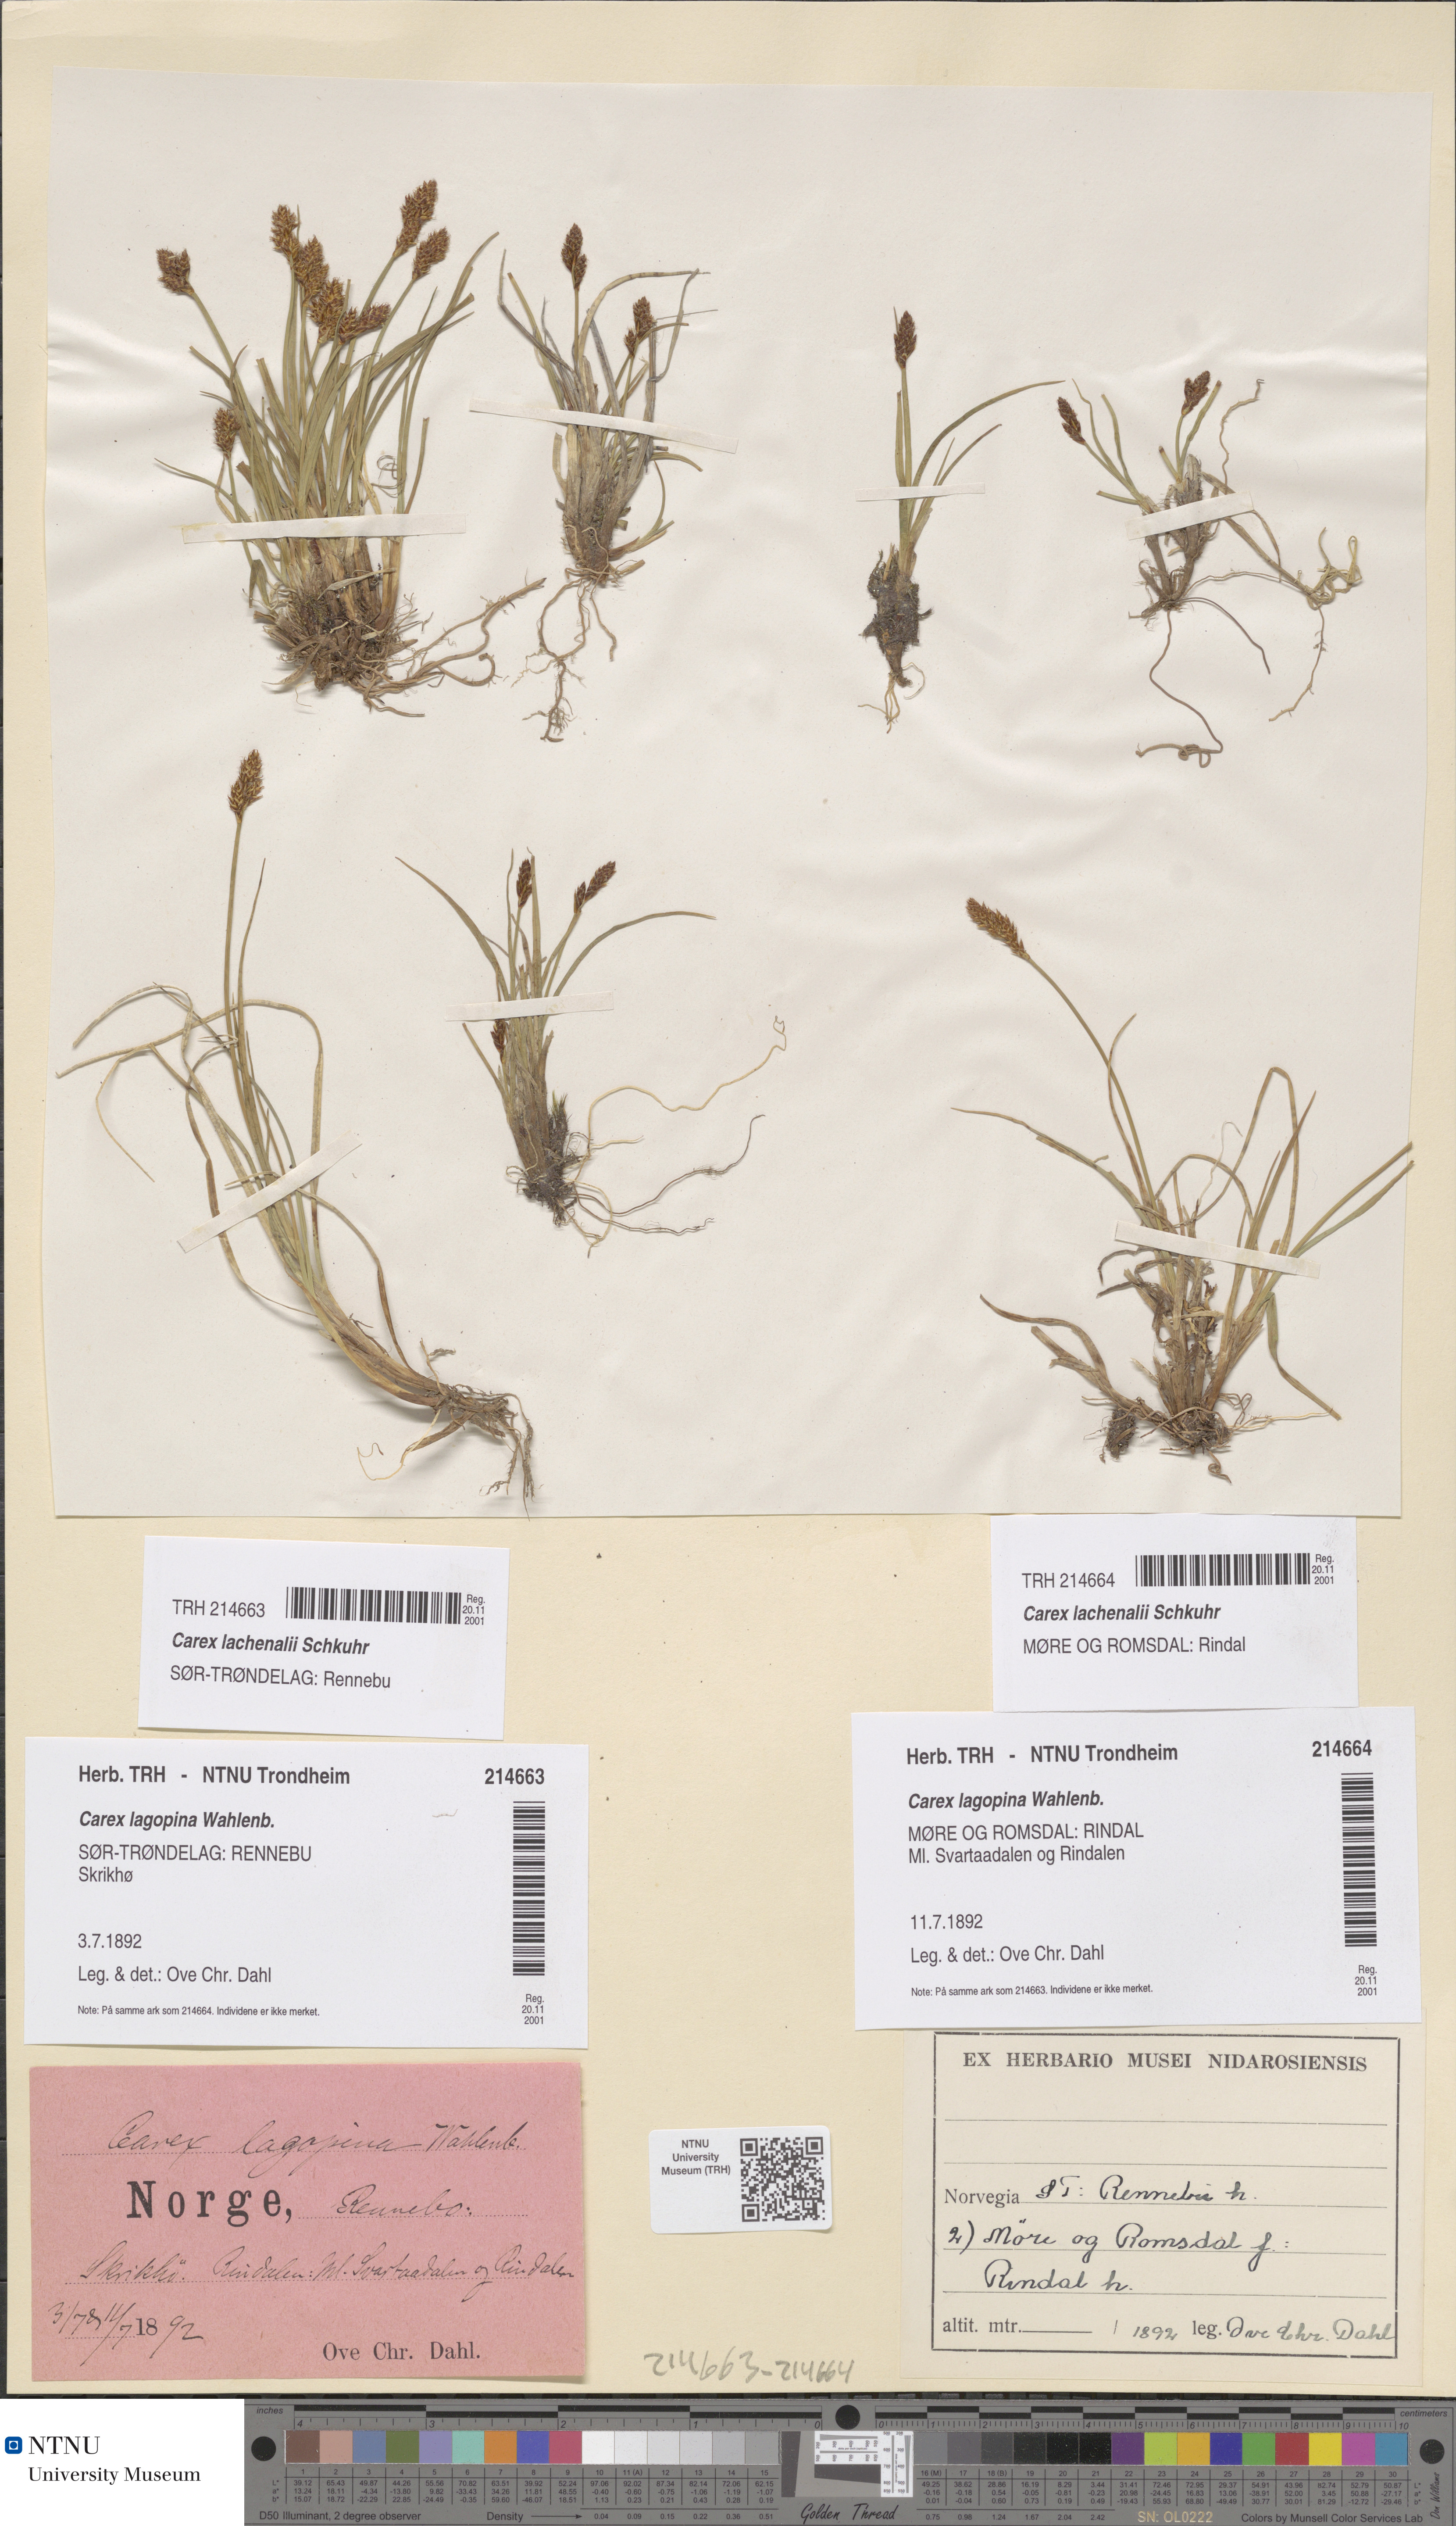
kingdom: Plantae
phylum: Tracheophyta
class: Liliopsida
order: Poales
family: Cyperaceae
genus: Carex
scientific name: Carex lachenalii
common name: Hare's-foot sedge
